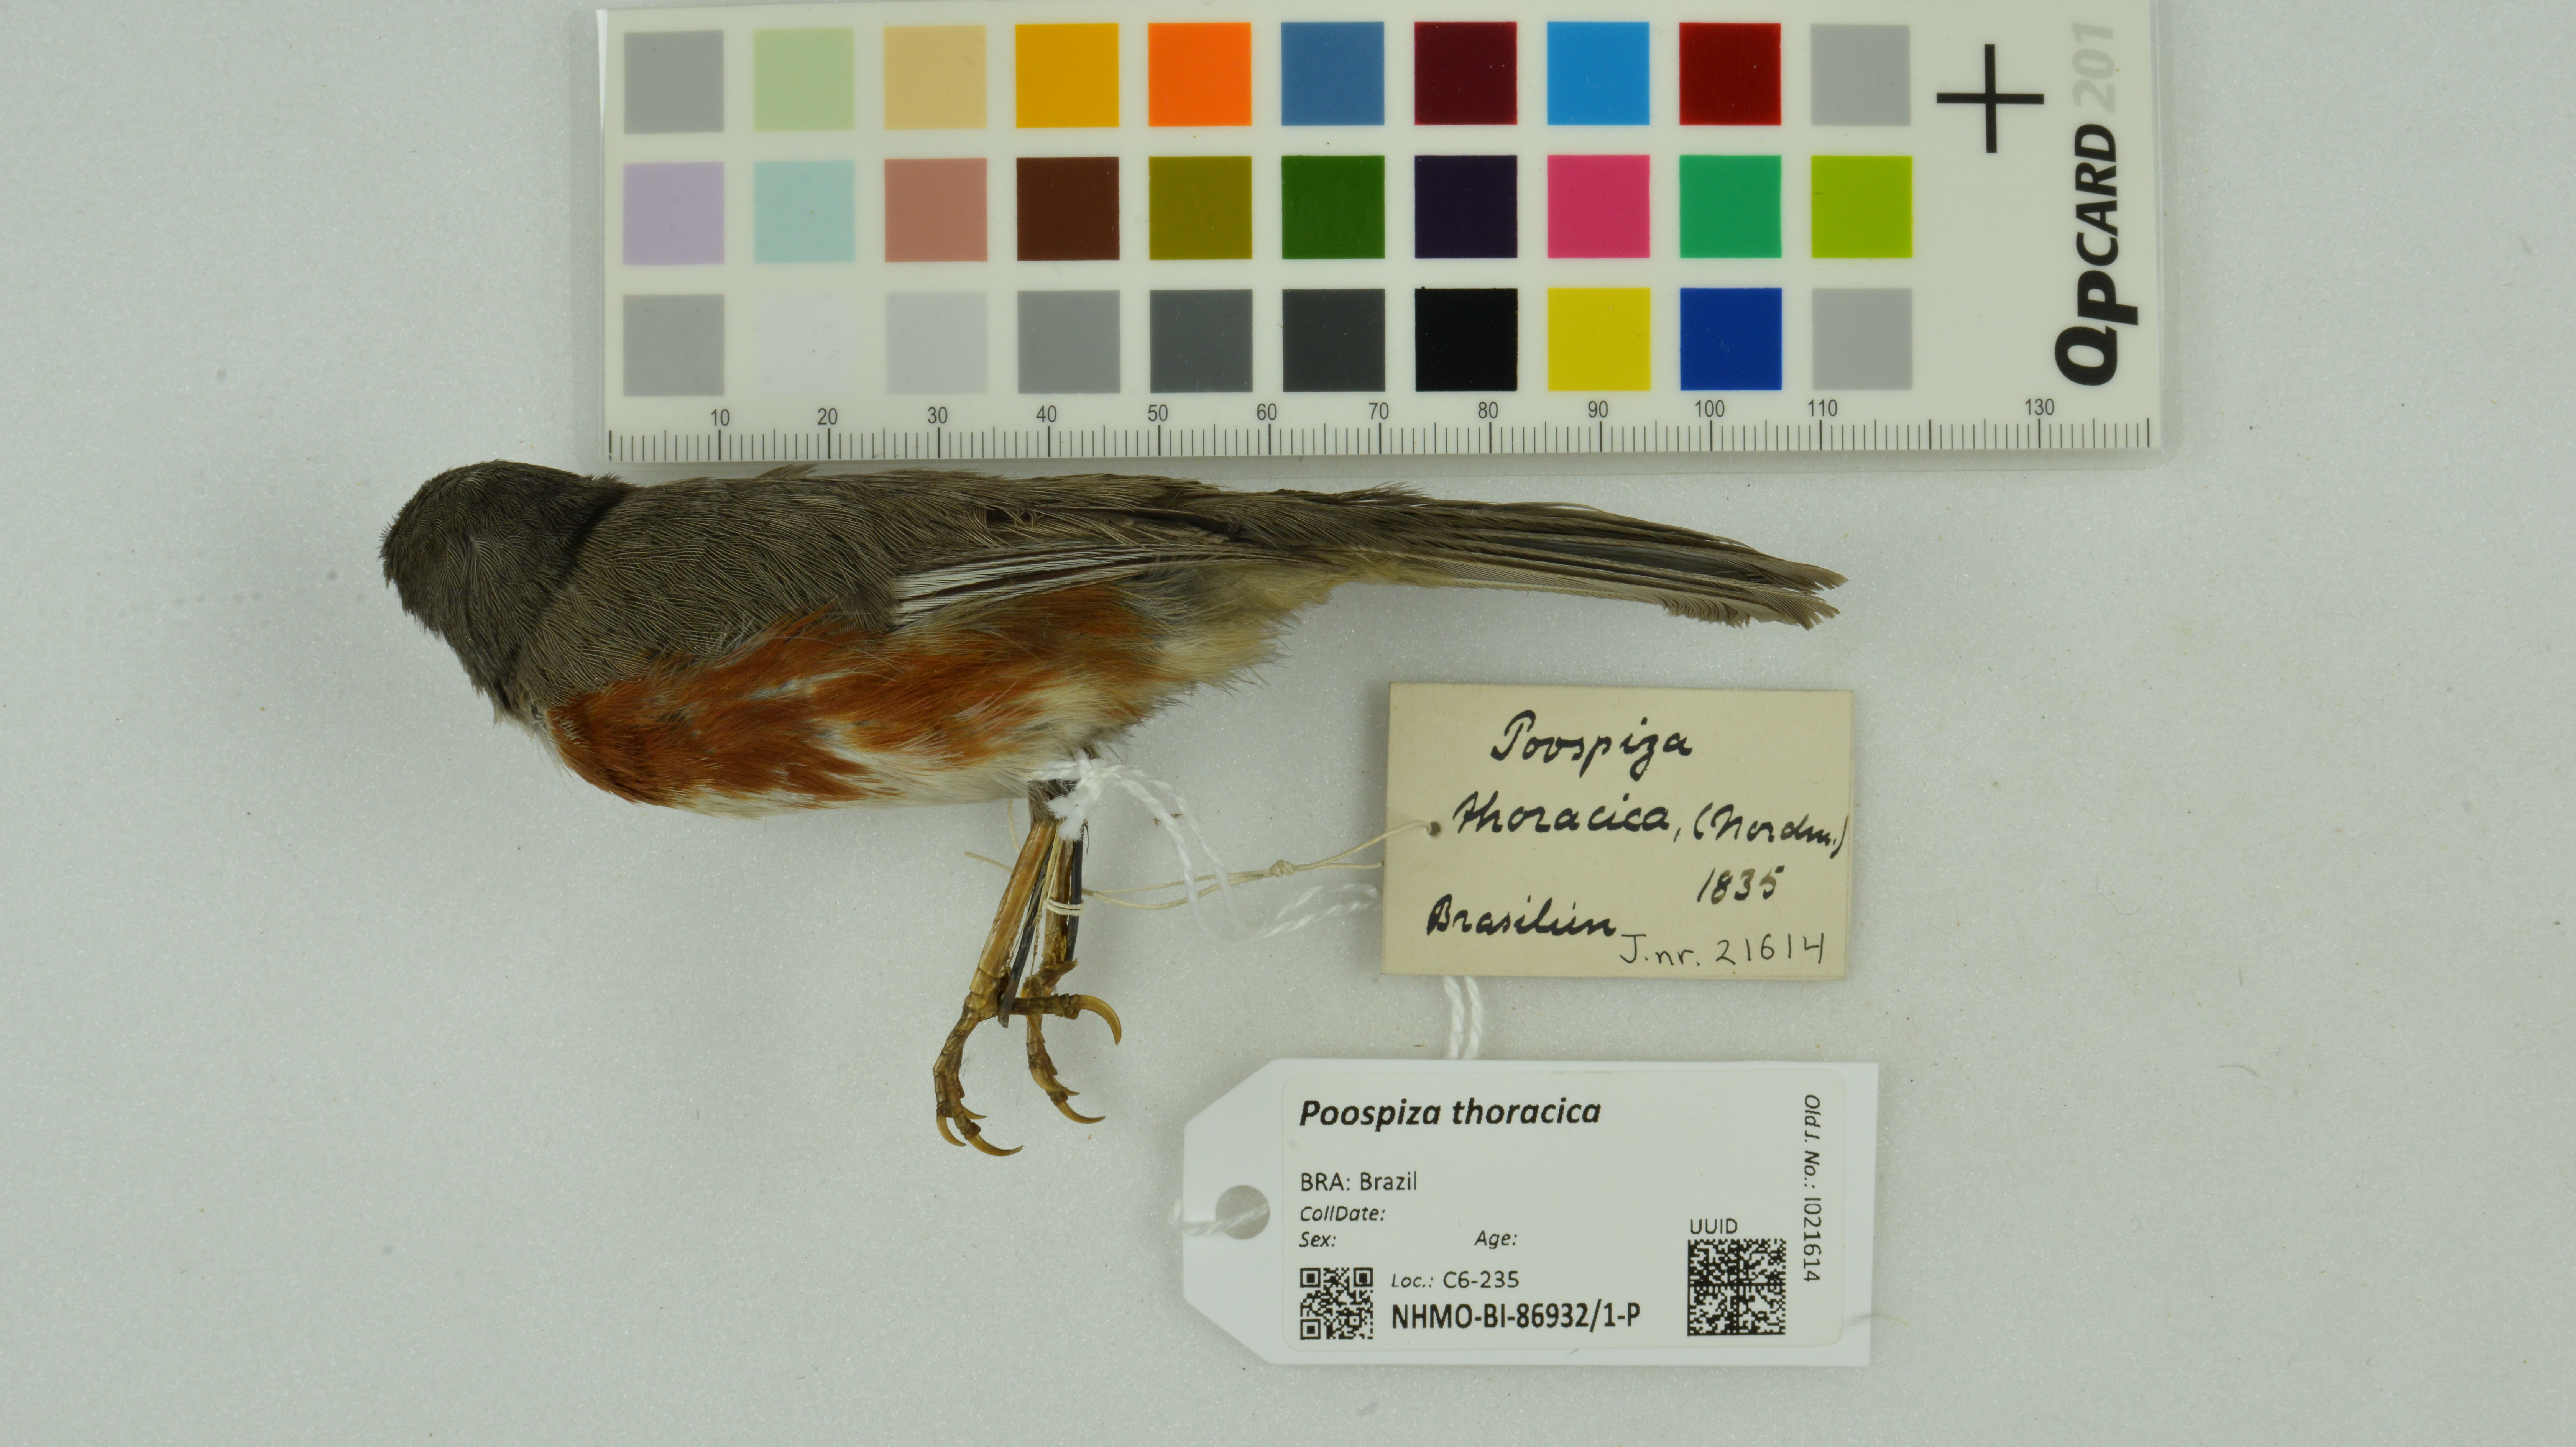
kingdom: Animalia
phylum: Chordata
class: Aves
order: Passeriformes
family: Thraupidae
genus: Castanozoster
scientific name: Castanozoster thoracicus
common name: Bay-chested warbling-finch
